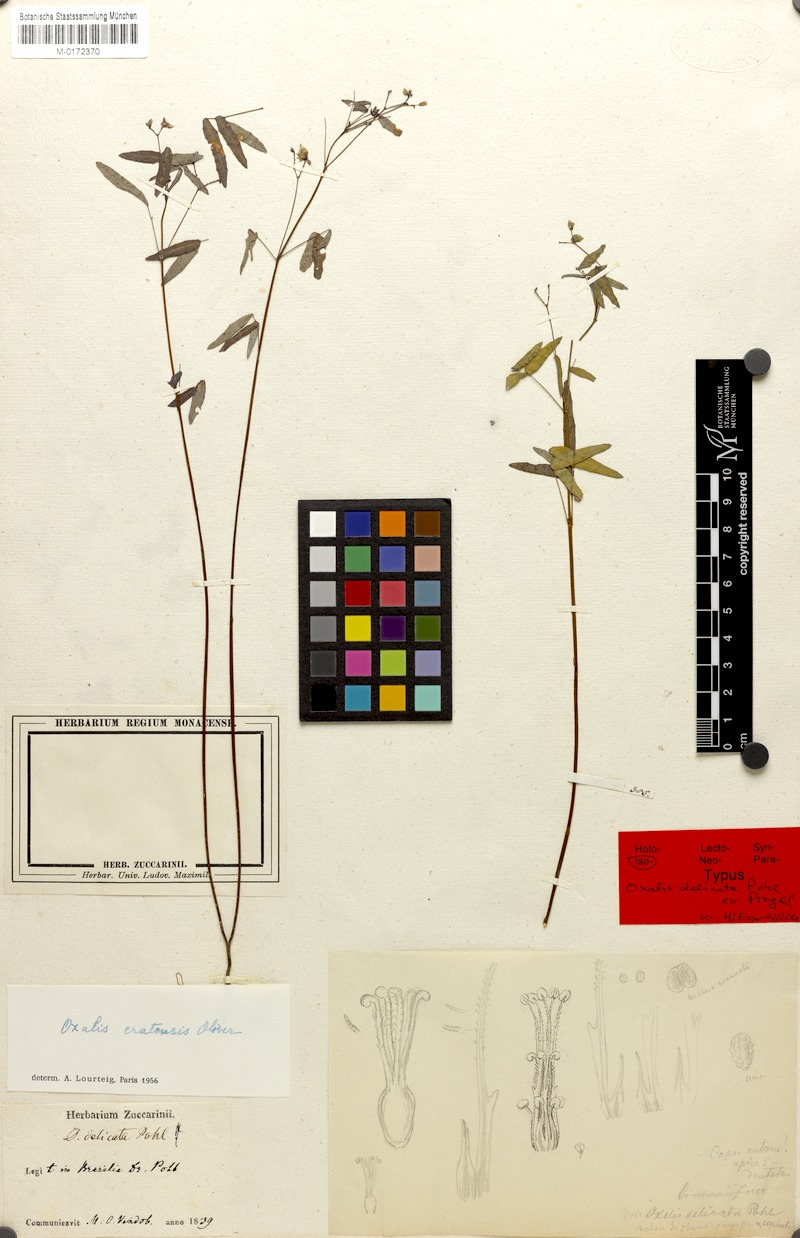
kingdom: Plantae
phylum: Tracheophyta
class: Magnoliopsida
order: Oxalidales
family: Oxalidaceae
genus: Oxalis
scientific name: Oxalis cratensis
